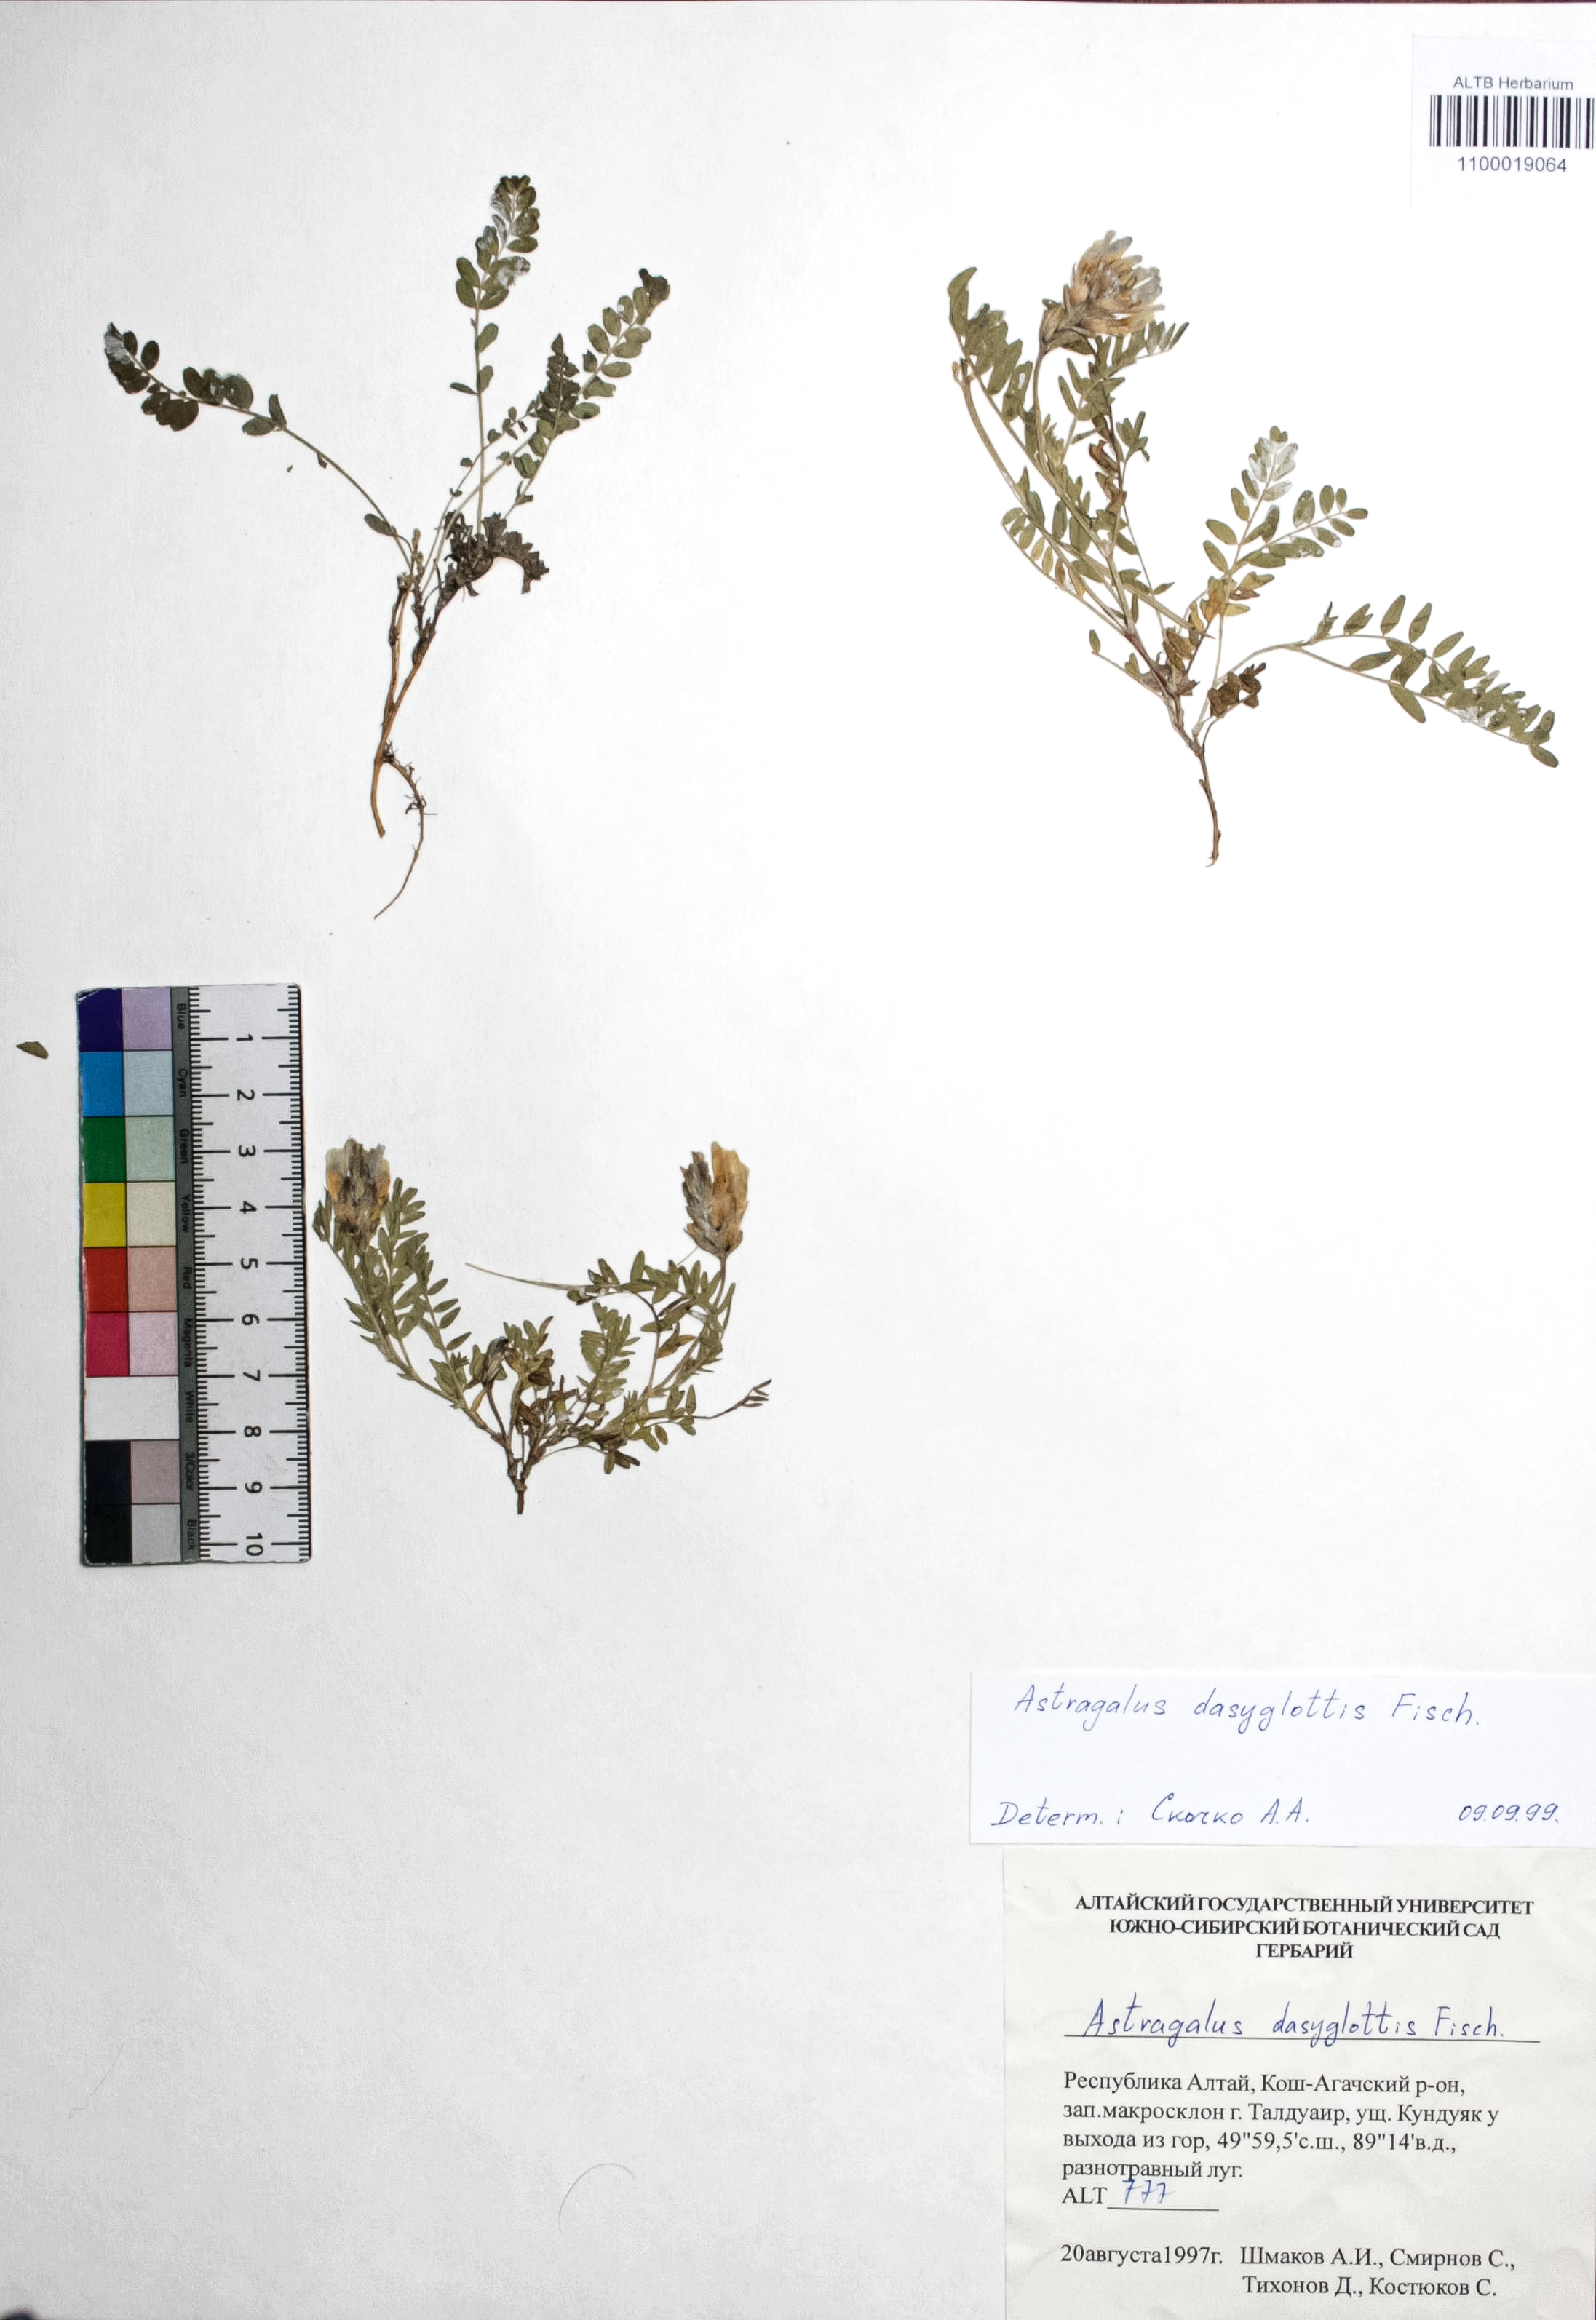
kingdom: Plantae
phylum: Tracheophyta
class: Magnoliopsida
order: Fabales
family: Fabaceae
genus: Astragalus
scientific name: Astragalus agrestis
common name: Field milk-vetch
